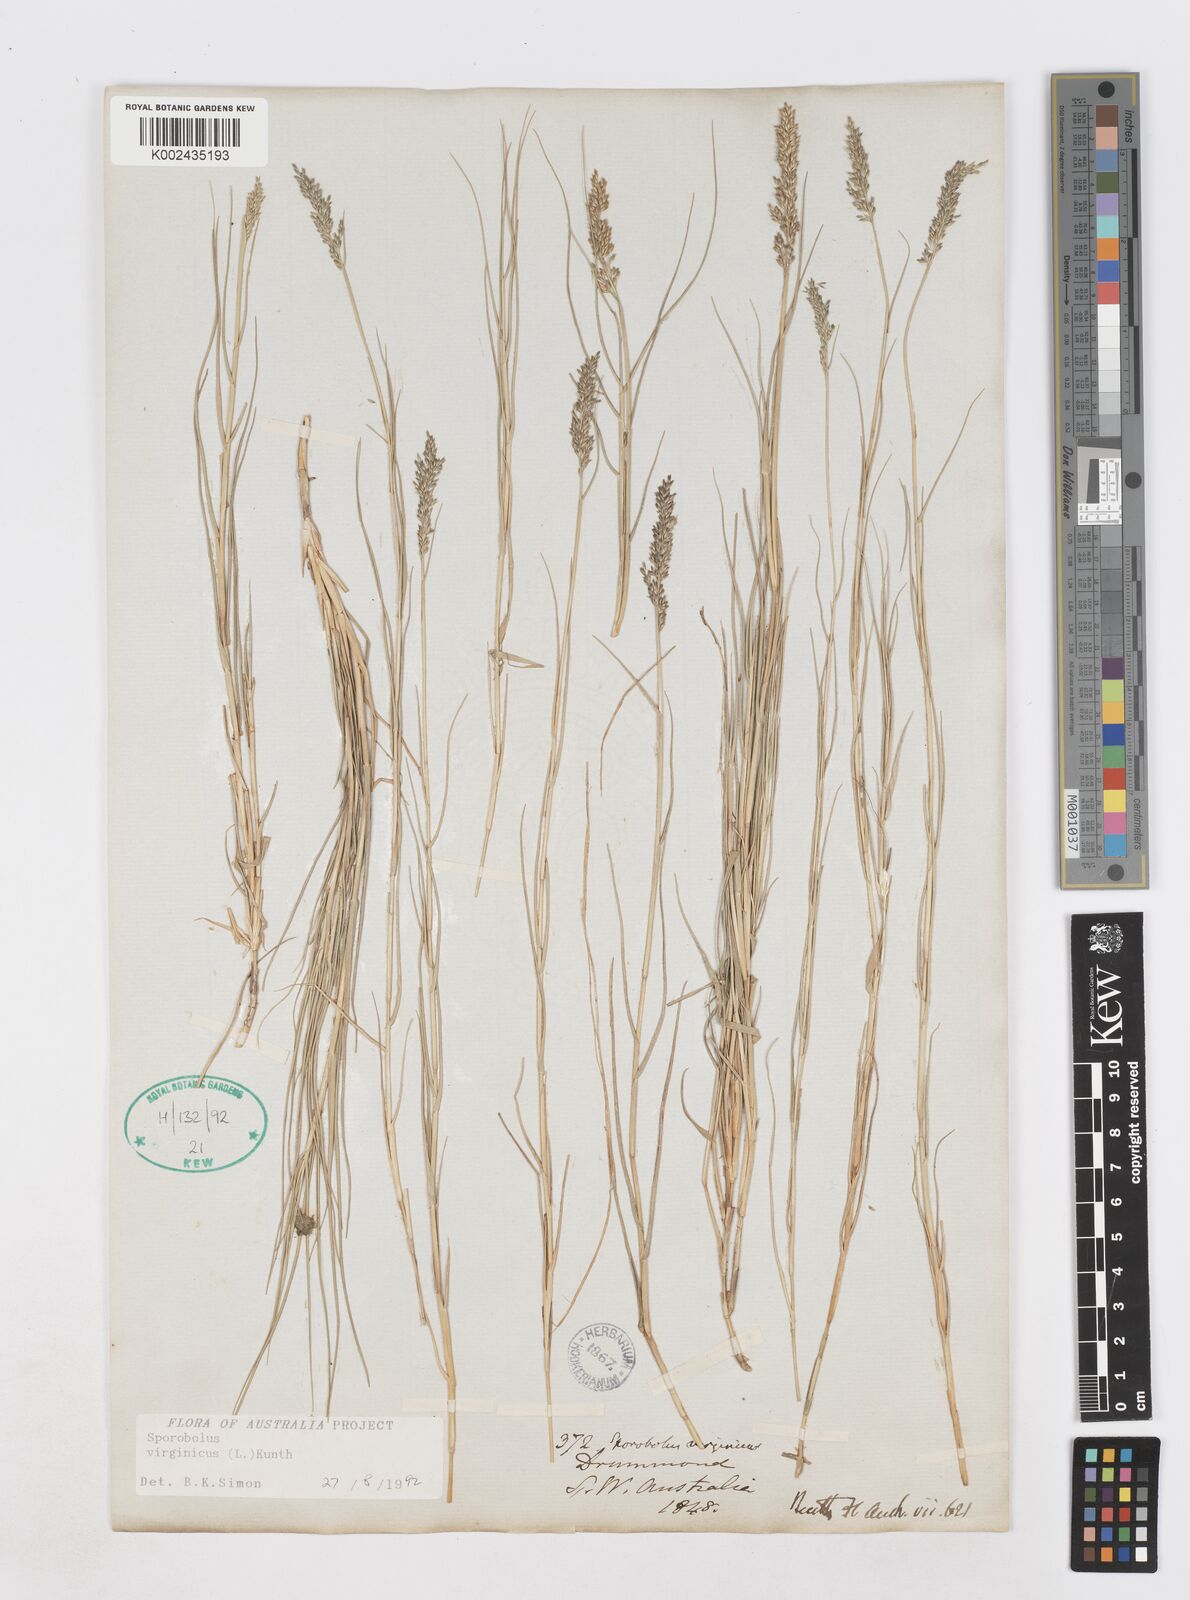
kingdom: Plantae
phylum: Tracheophyta
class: Liliopsida
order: Poales
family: Poaceae
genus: Sporobolus
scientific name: Sporobolus virginicus
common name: Beach dropseed
